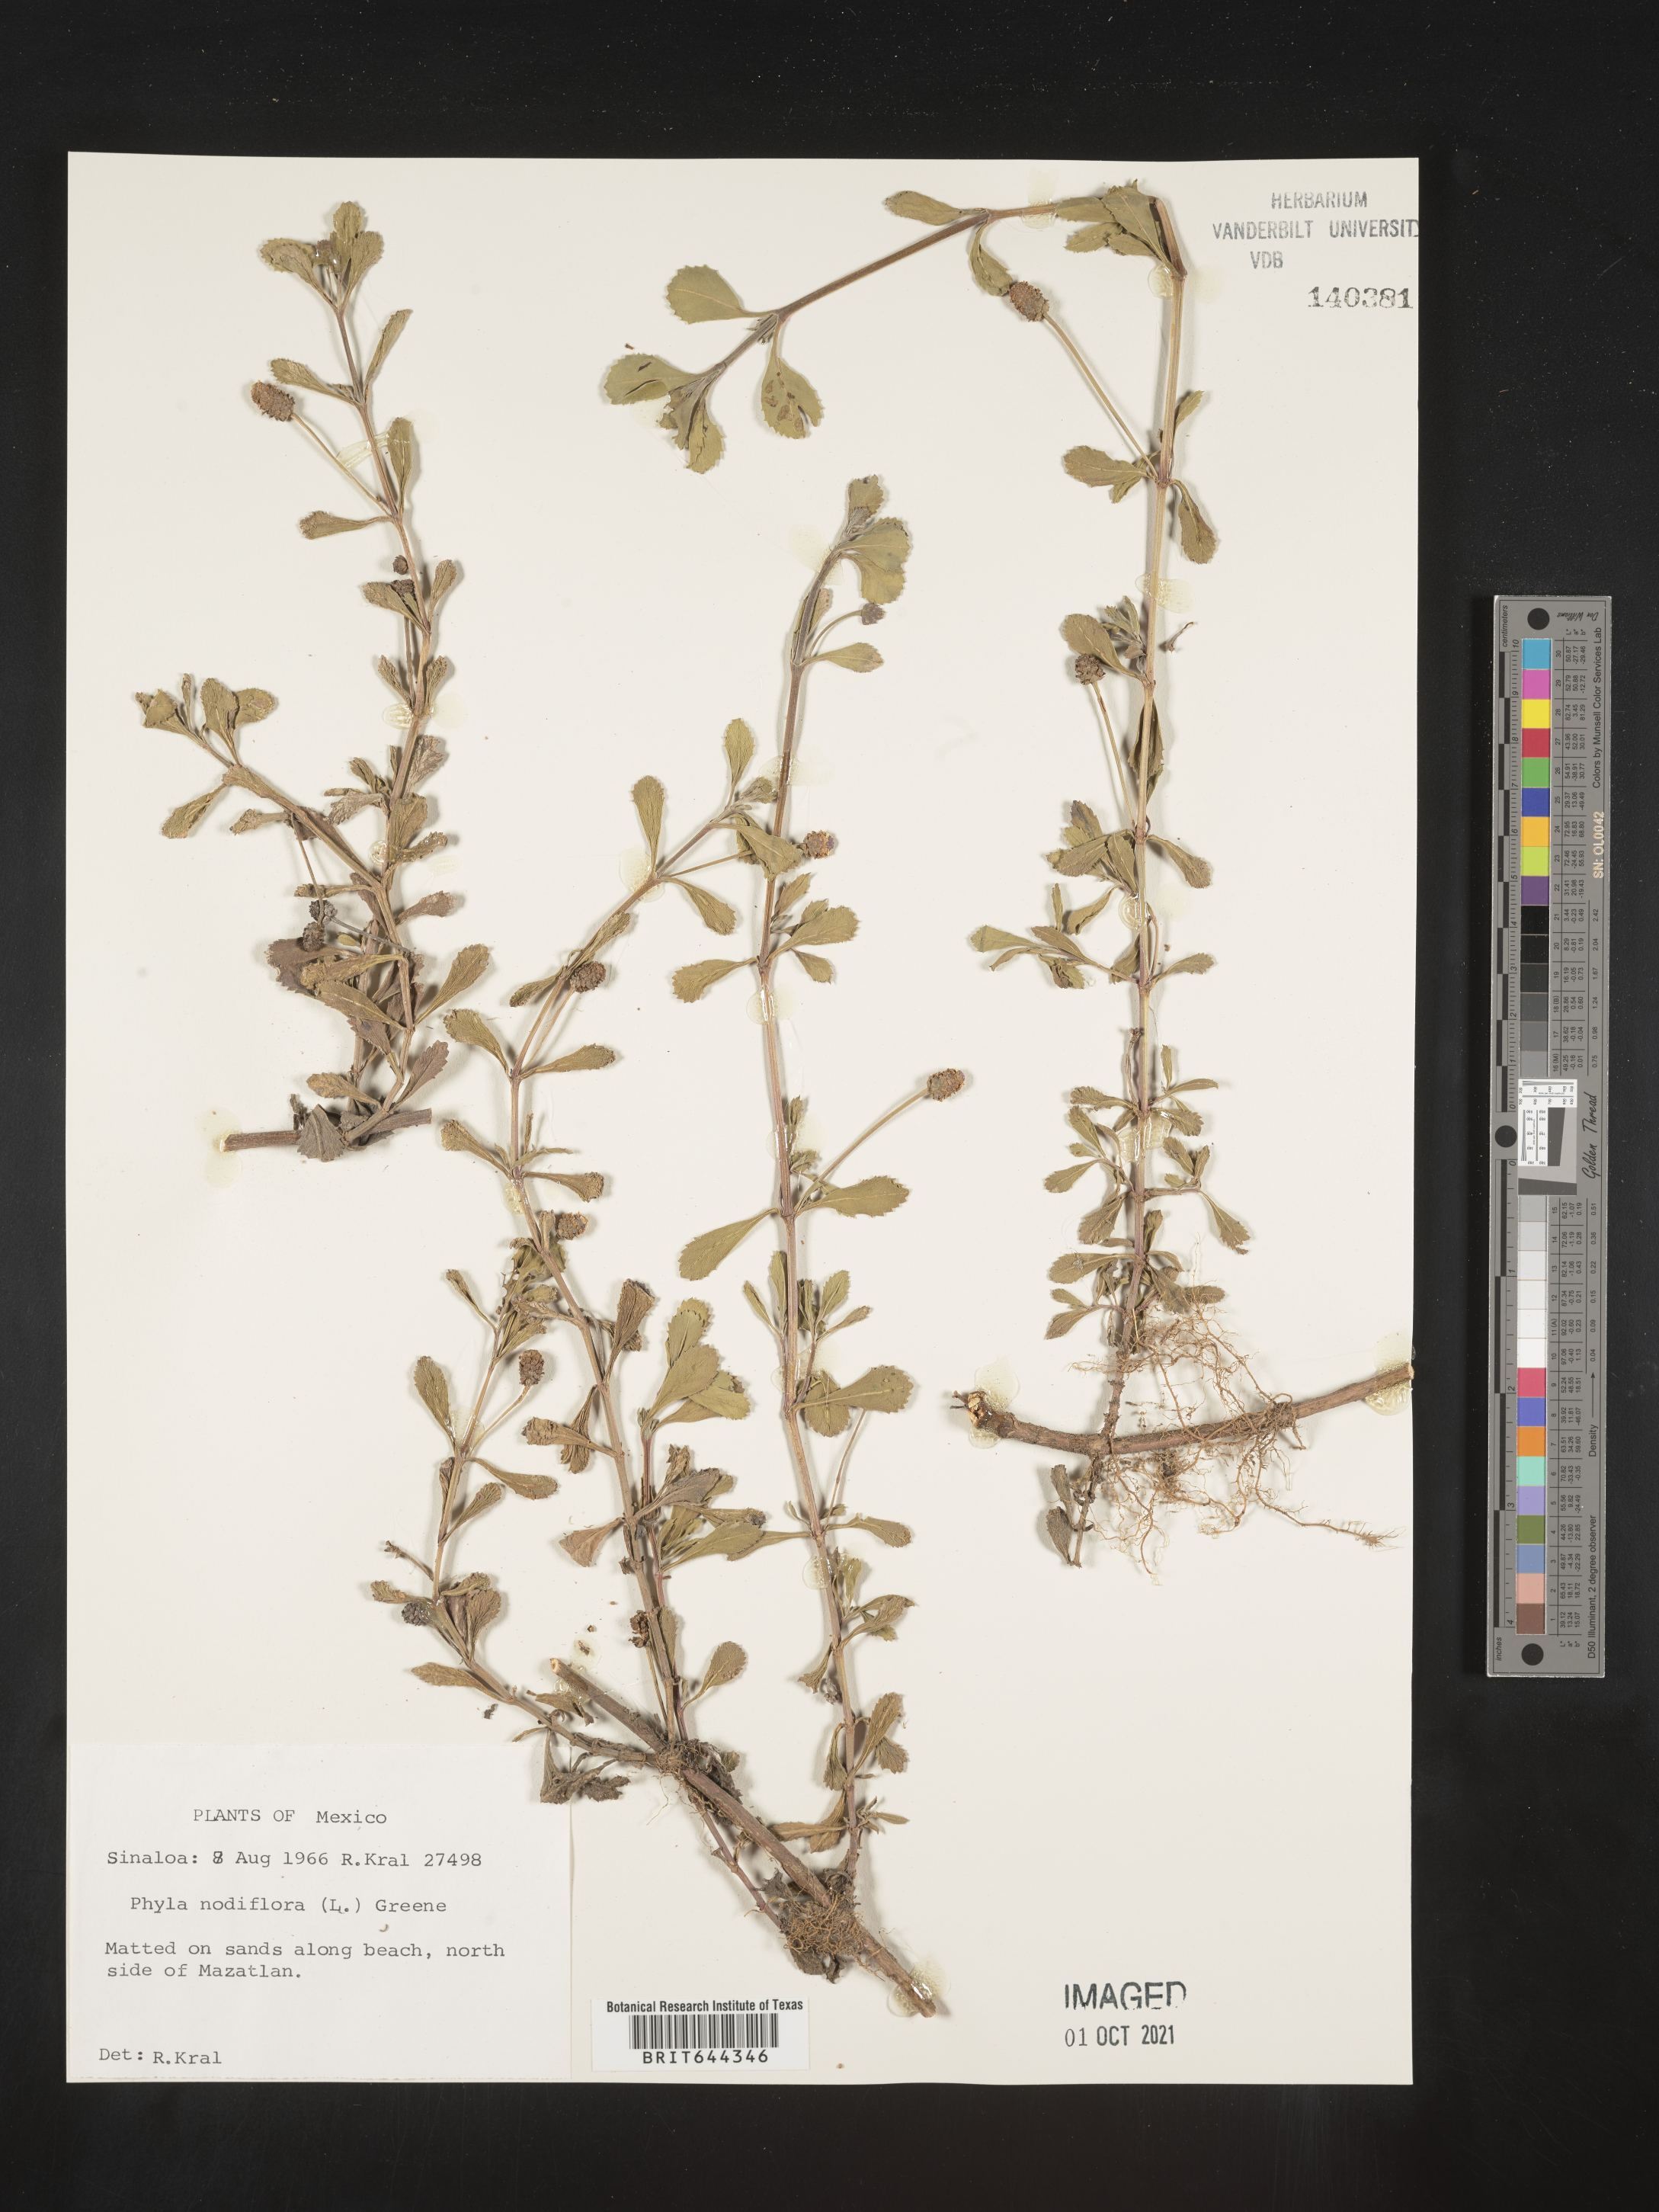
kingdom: Plantae
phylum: Tracheophyta
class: Magnoliopsida
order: Lamiales
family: Verbenaceae
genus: Phyla
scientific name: Phyla
